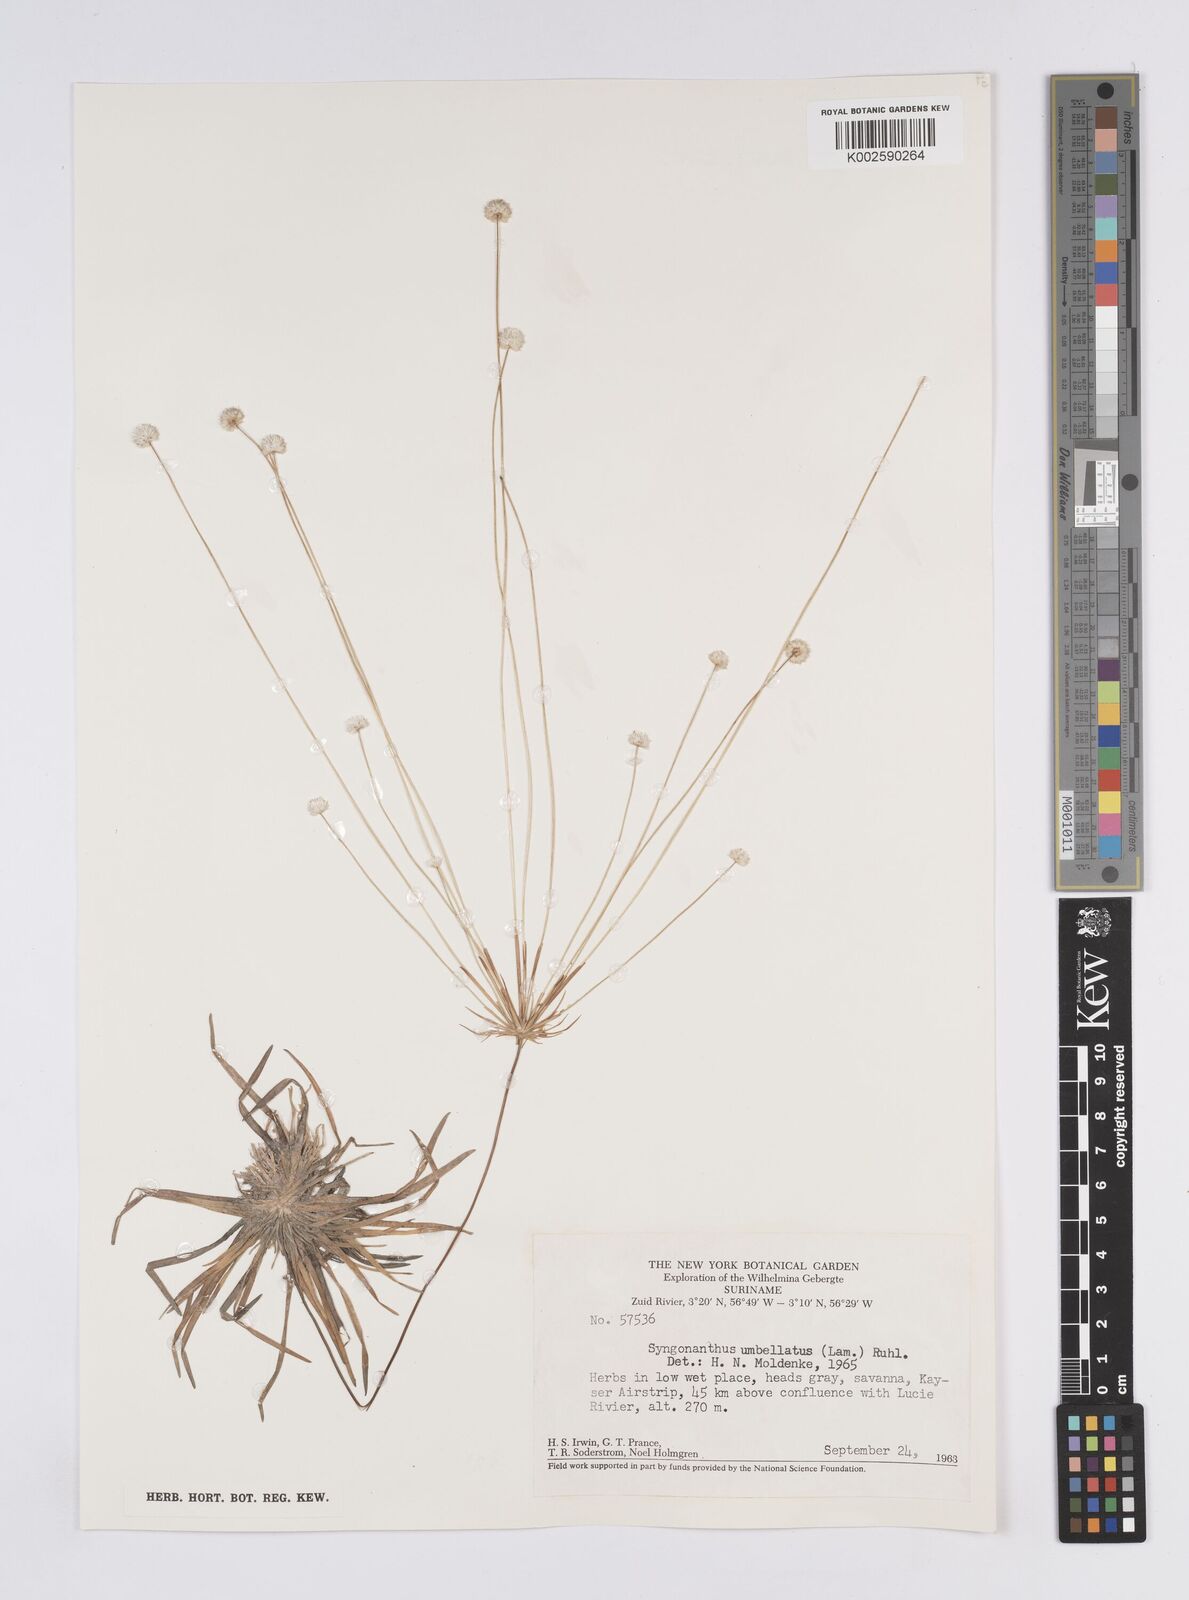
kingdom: Plantae
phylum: Tracheophyta
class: Liliopsida
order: Poales
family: Eriocaulaceae
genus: Syngonanthus
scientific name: Syngonanthus umbellatus
